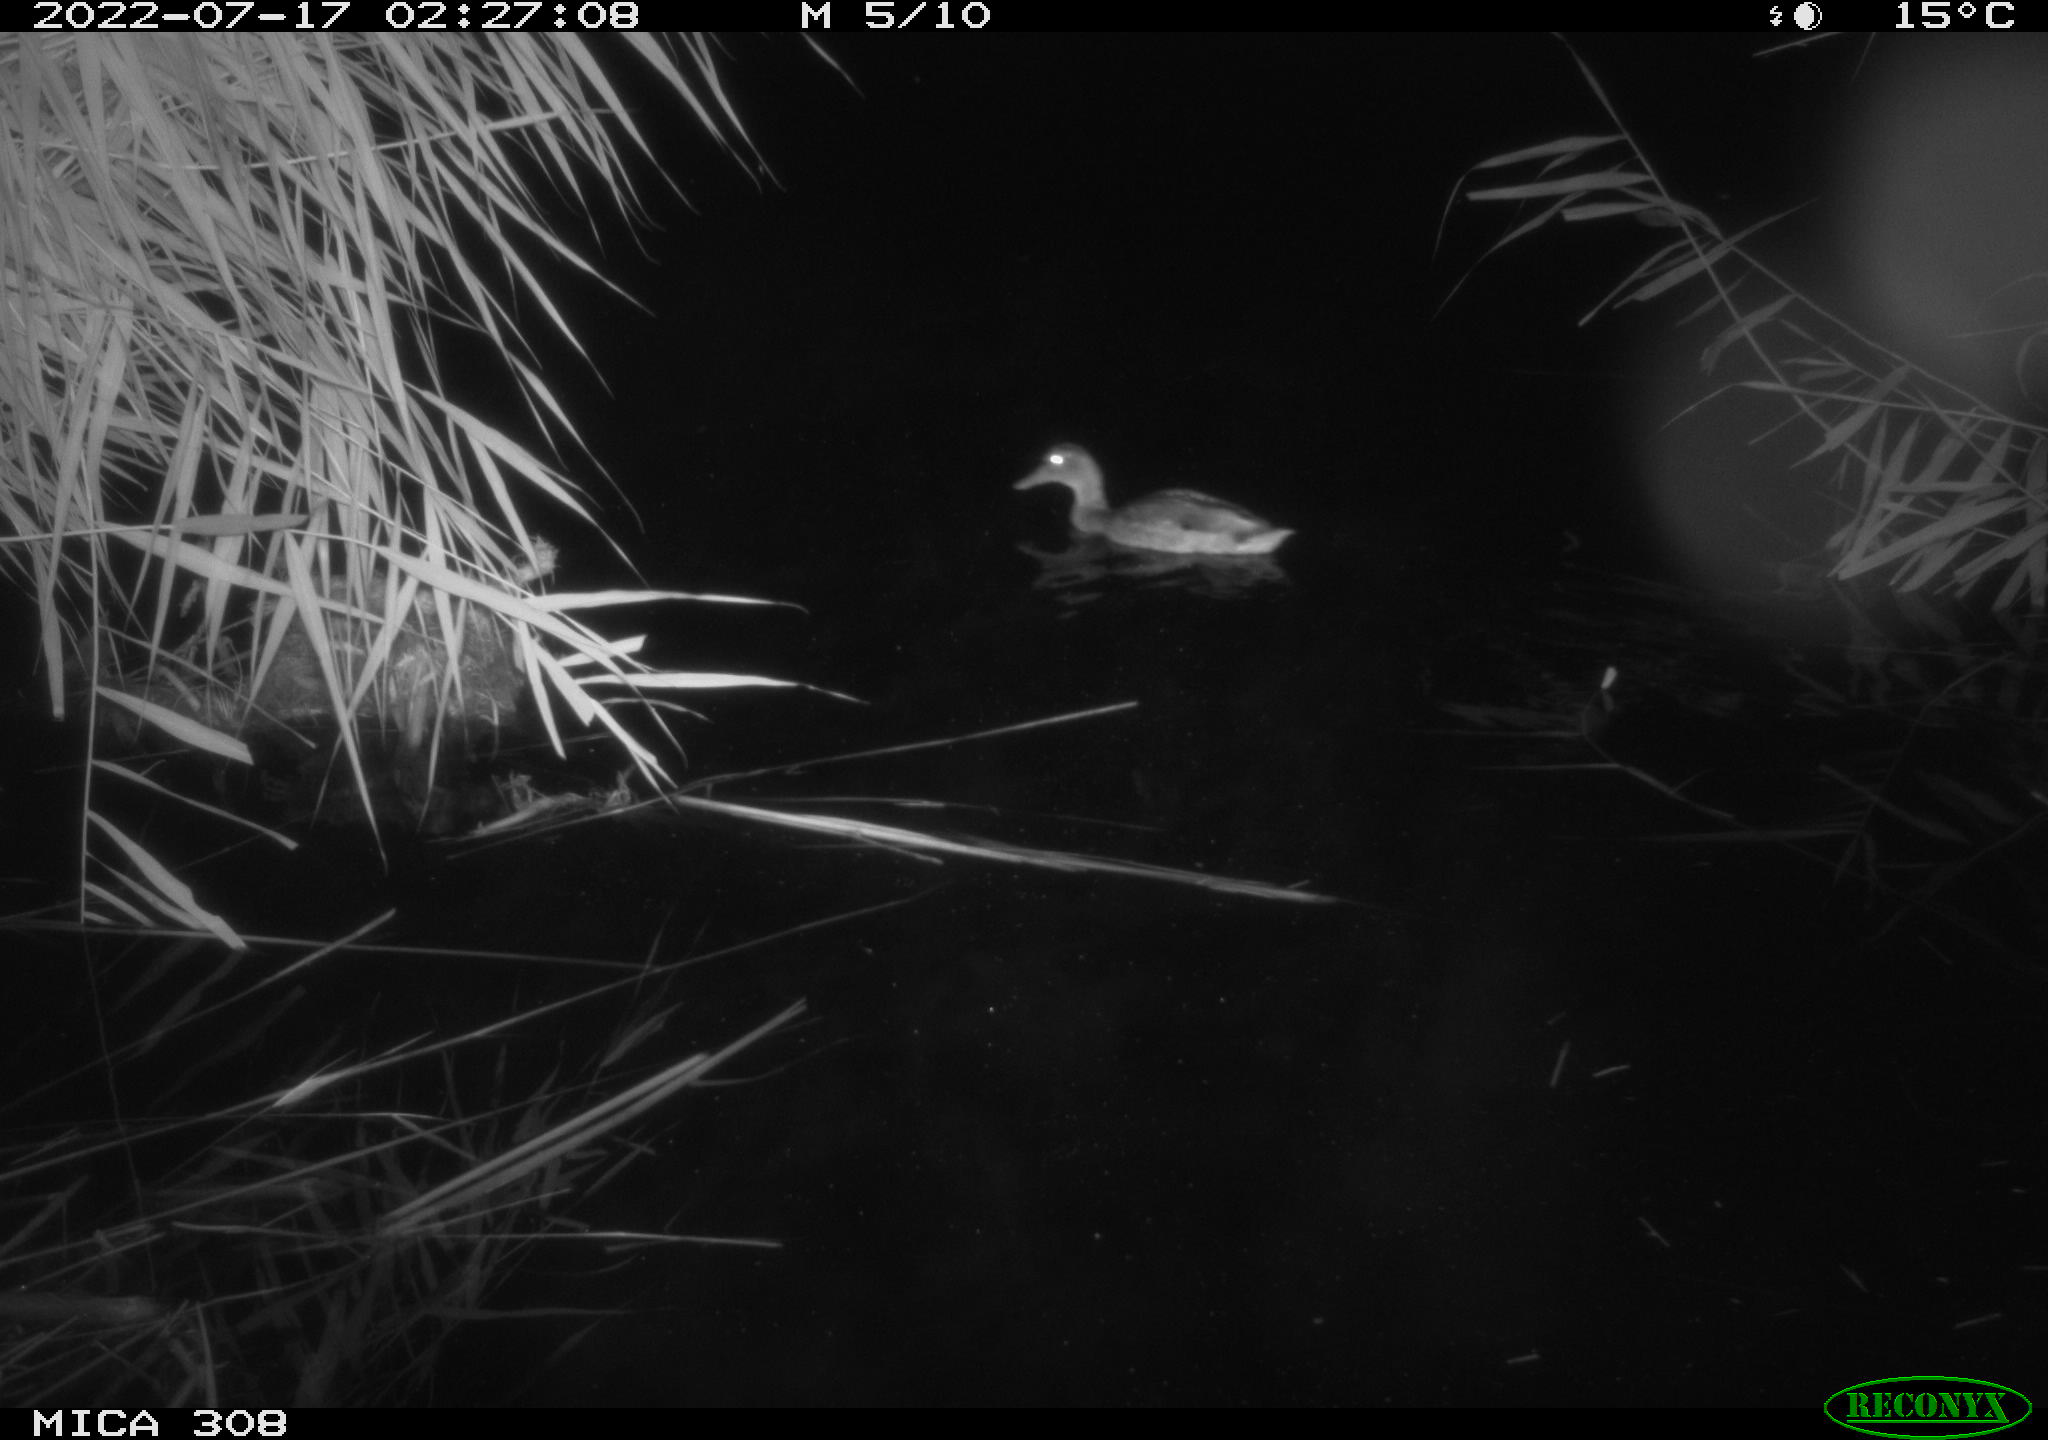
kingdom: Animalia
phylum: Chordata
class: Aves
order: Anseriformes
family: Anatidae
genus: Anas
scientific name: Anas platyrhynchos
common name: Mallard
